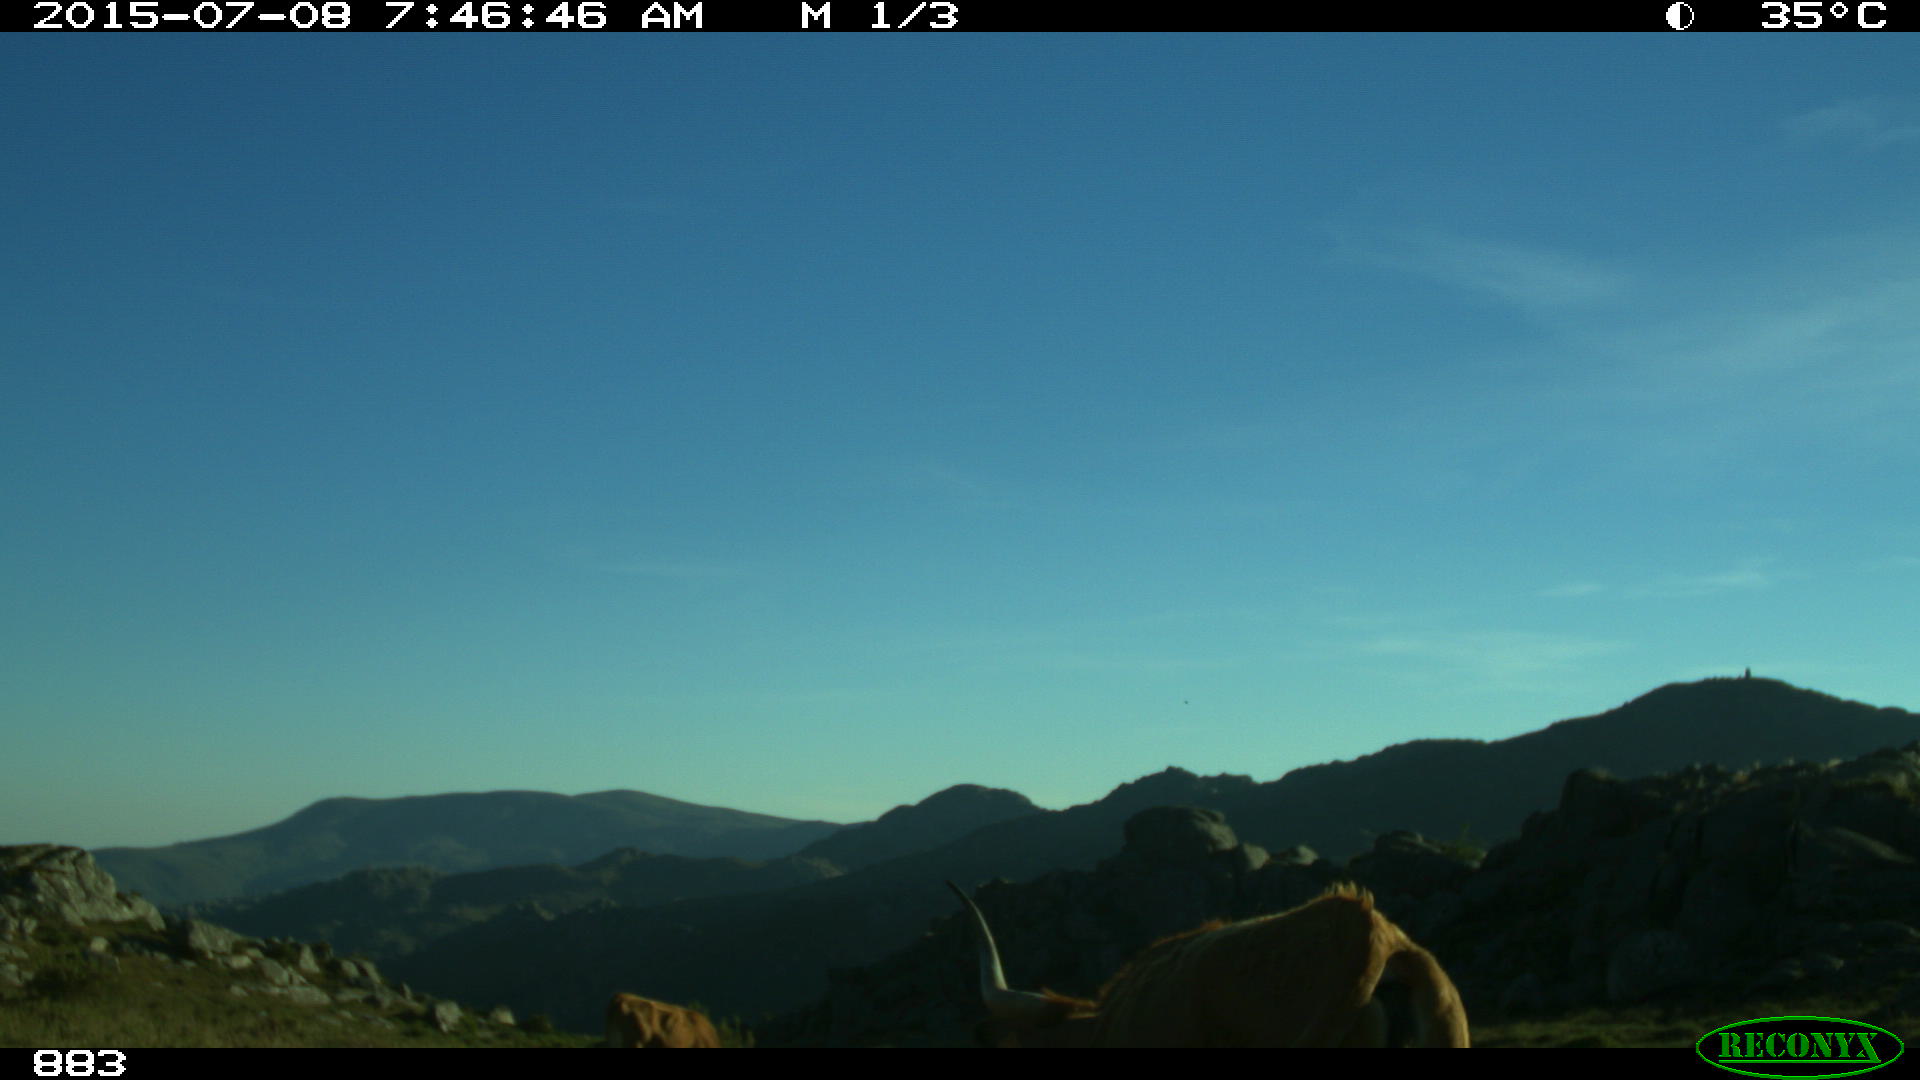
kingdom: Animalia
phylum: Chordata
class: Mammalia
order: Artiodactyla
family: Bovidae
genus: Bos
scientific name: Bos taurus
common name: Domesticated cattle
